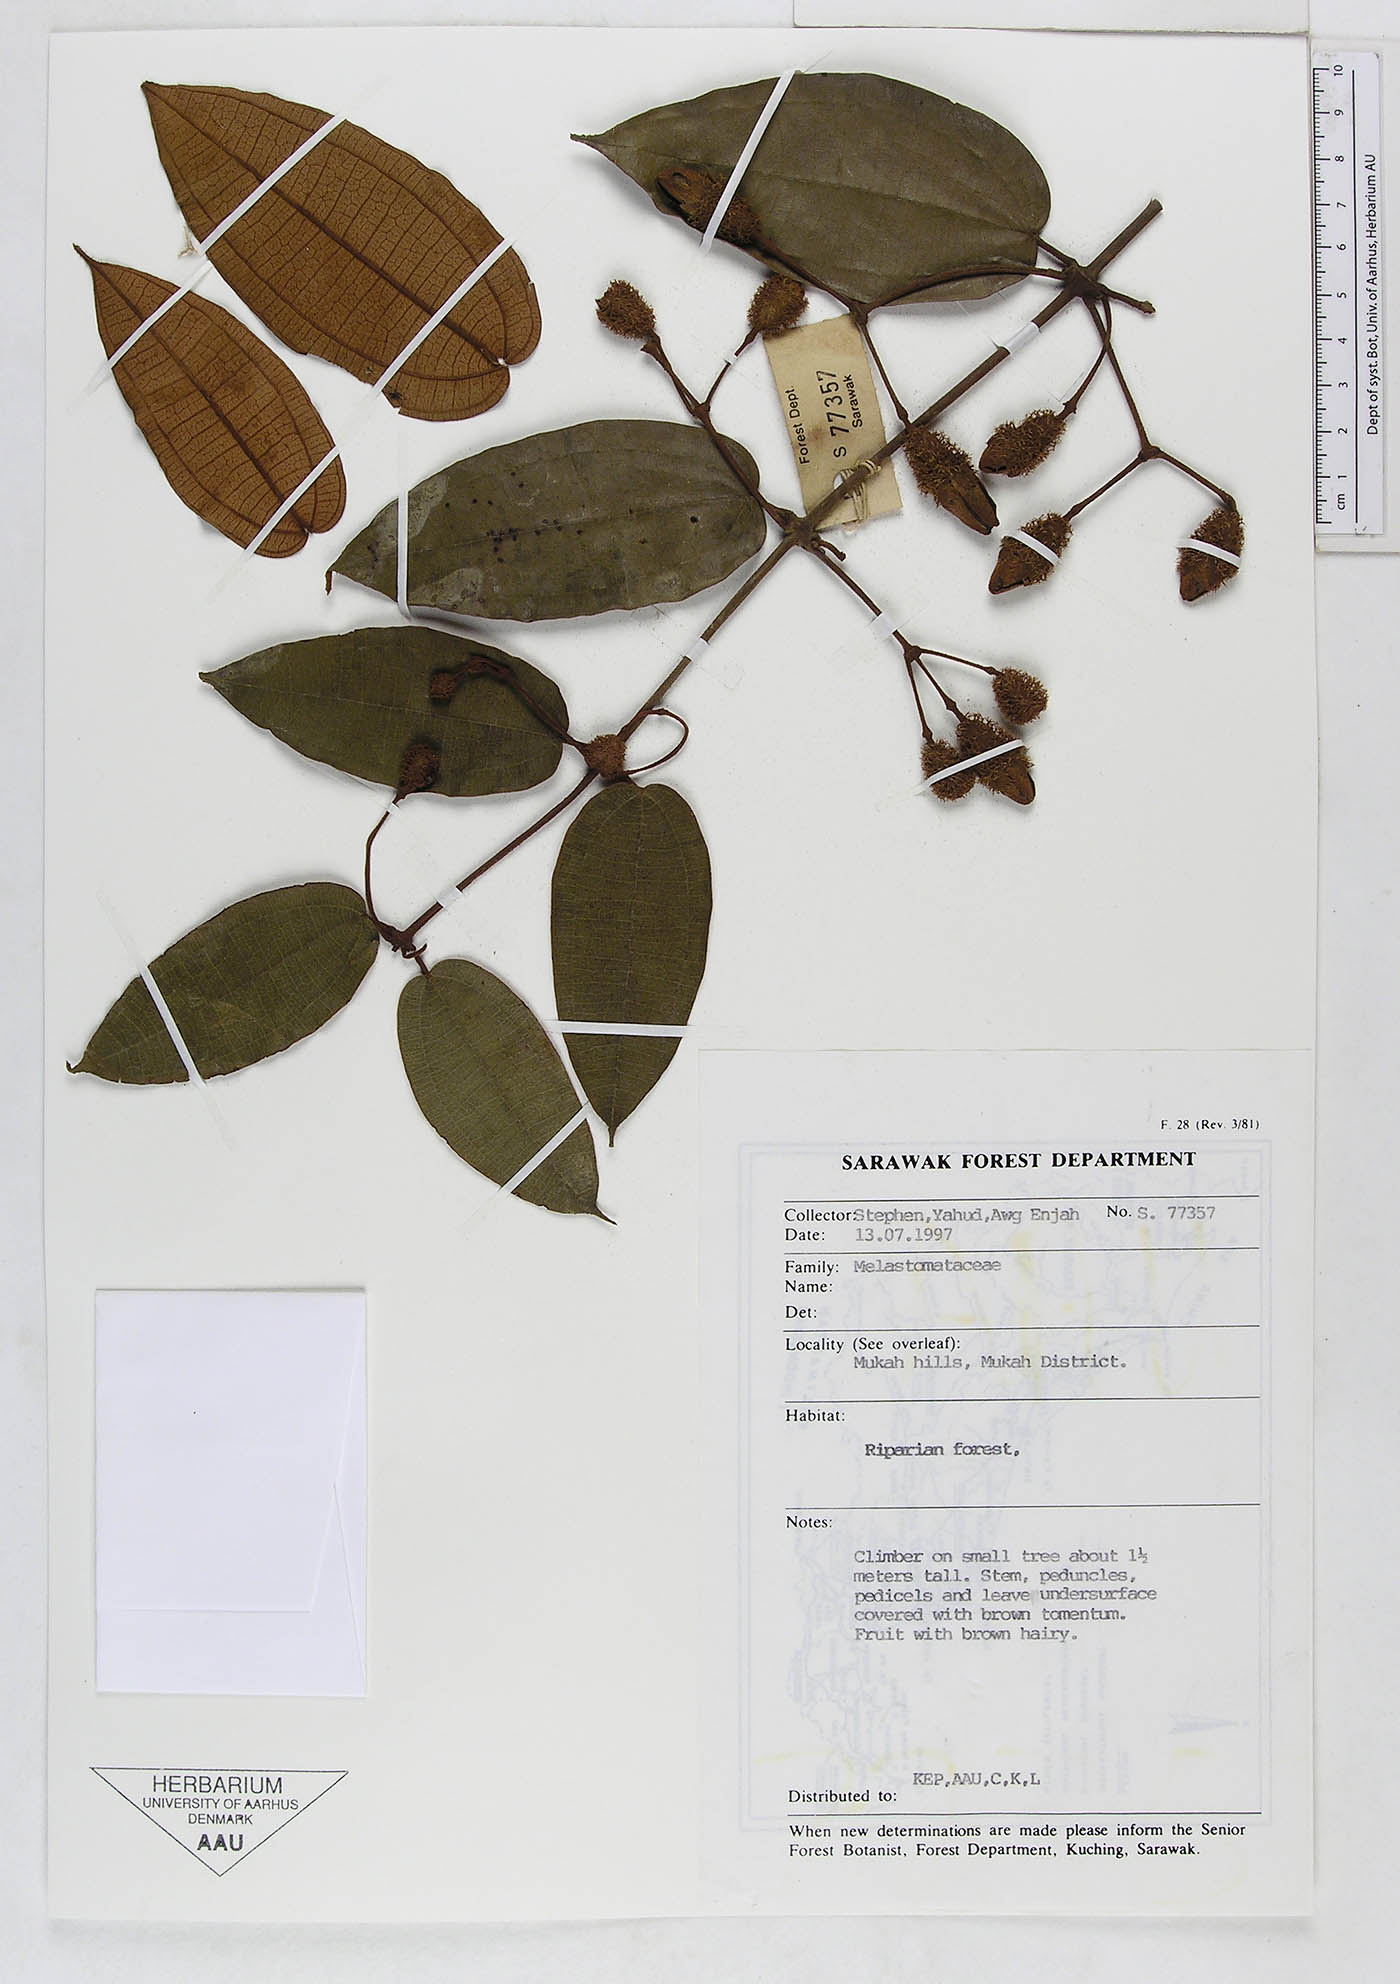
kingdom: Plantae
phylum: Tracheophyta
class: Magnoliopsida
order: Myrtales
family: Melastomataceae
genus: Macrolenes
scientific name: Macrolenes
